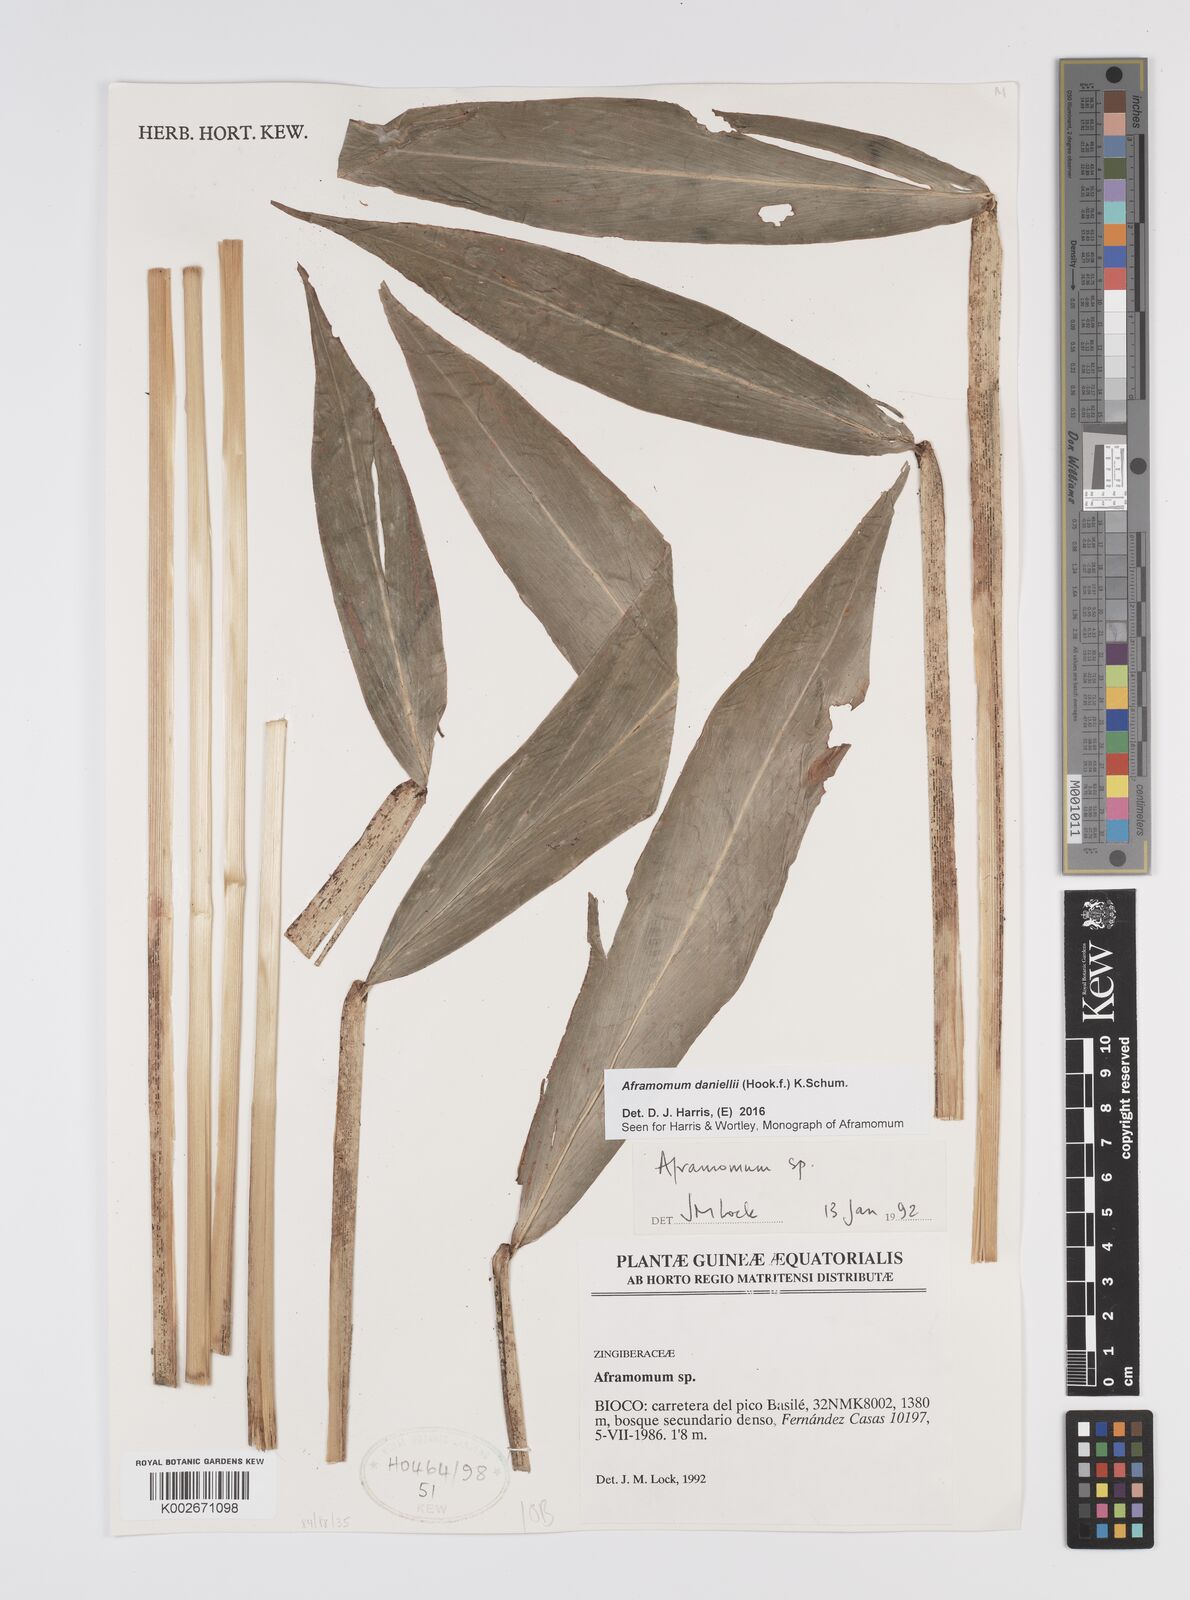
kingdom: Plantae
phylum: Tracheophyta
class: Liliopsida
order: Zingiberales
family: Zingiberaceae
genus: Aframomum
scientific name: Aframomum daniellii
